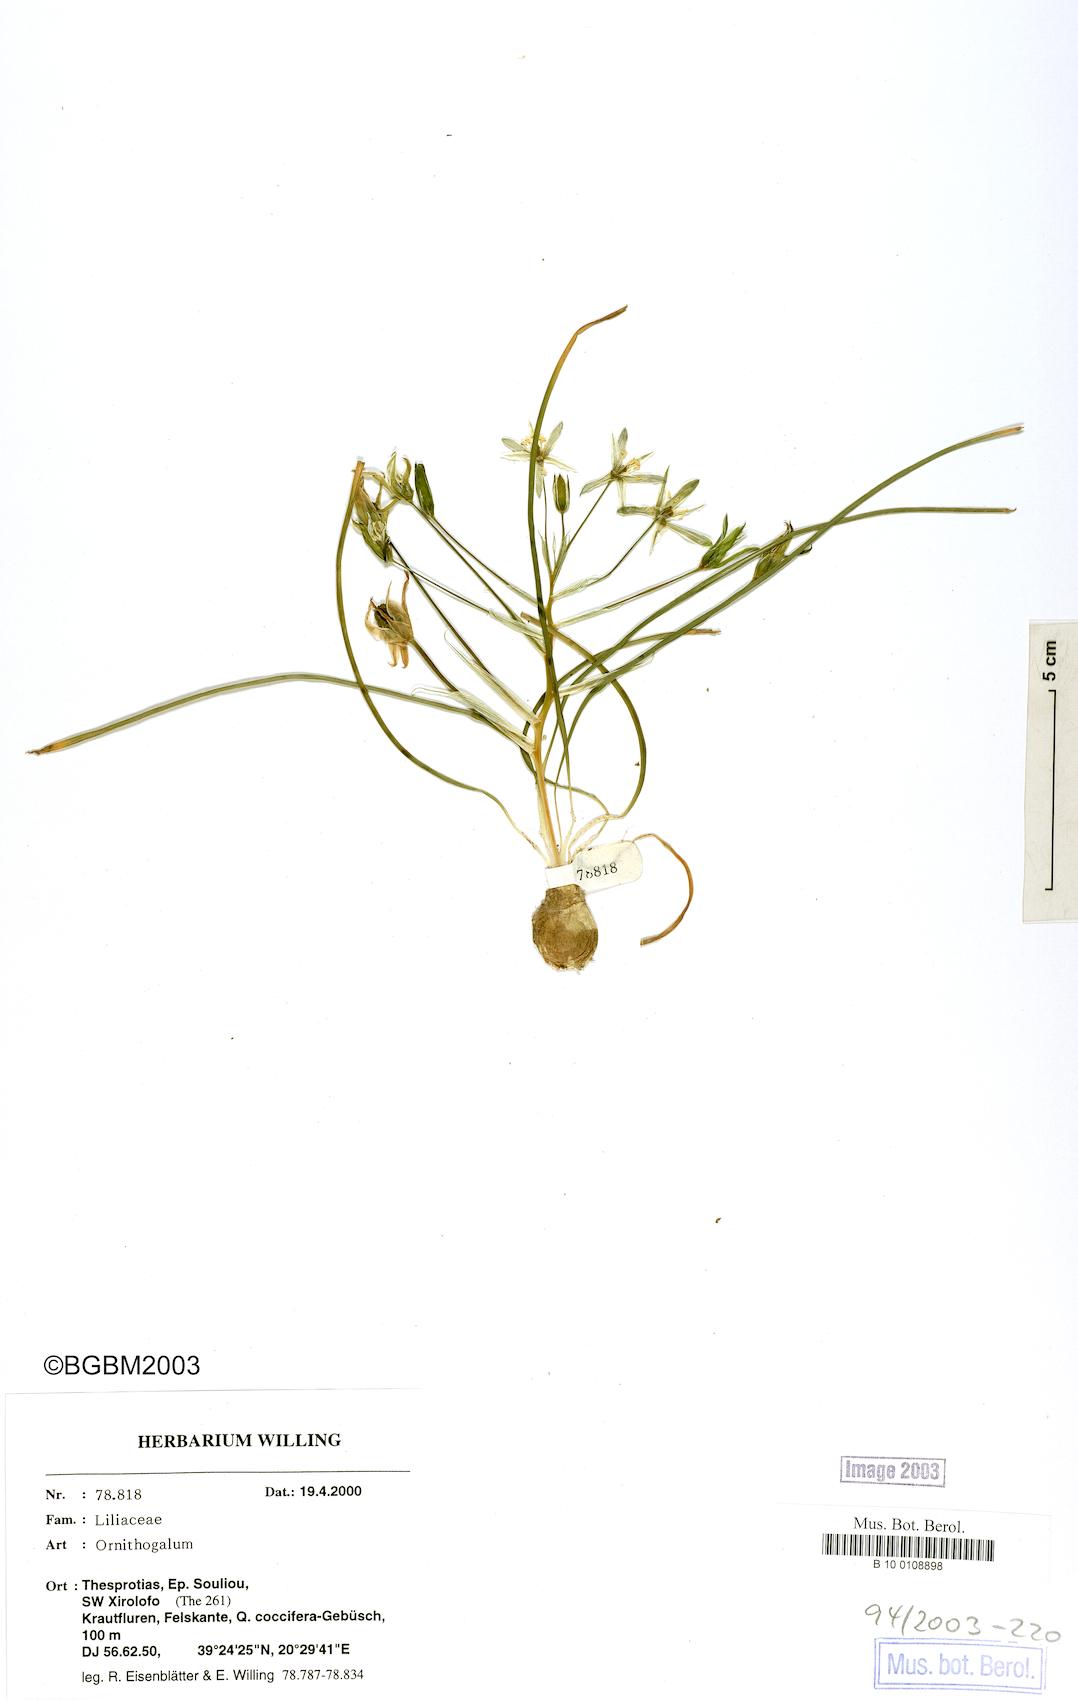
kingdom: Plantae
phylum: Tracheophyta
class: Liliopsida
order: Asparagales
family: Asparagaceae
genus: Ornithogalum
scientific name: Ornithogalum
